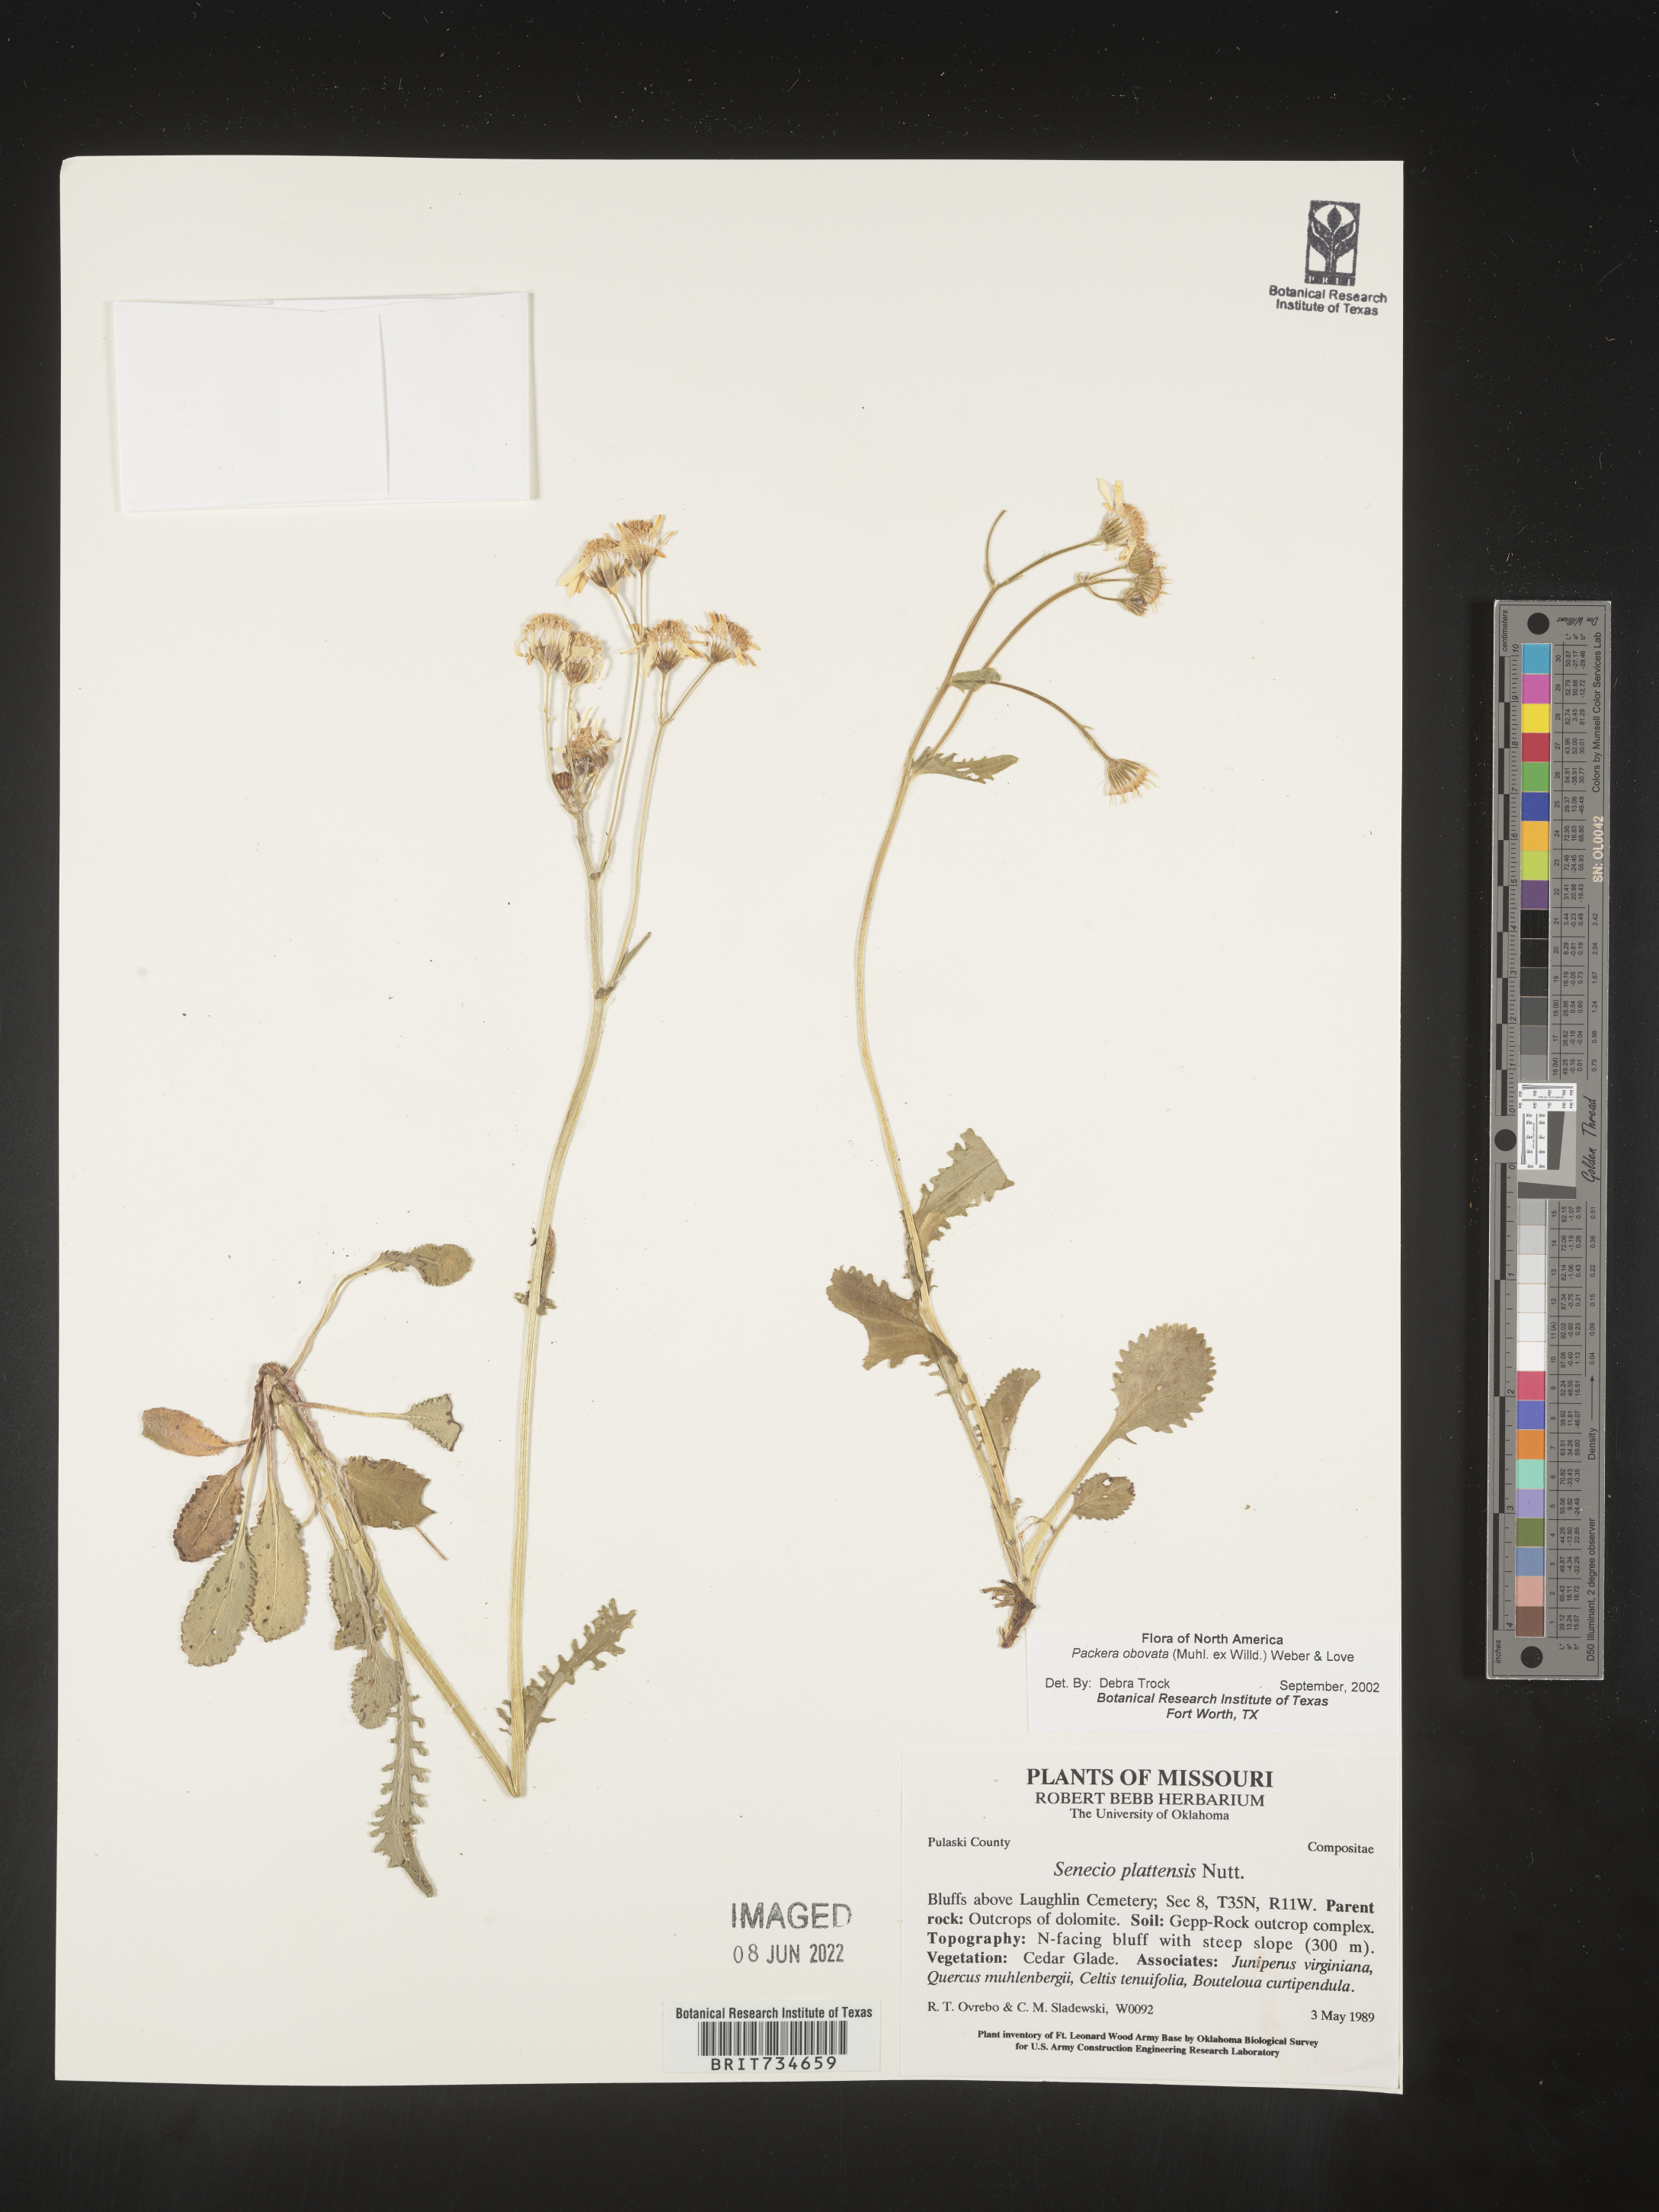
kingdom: Plantae
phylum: Tracheophyta
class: Magnoliopsida
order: Asterales
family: Asteraceae
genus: Packera
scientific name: Packera obovata
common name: Round-leaf ragwort
